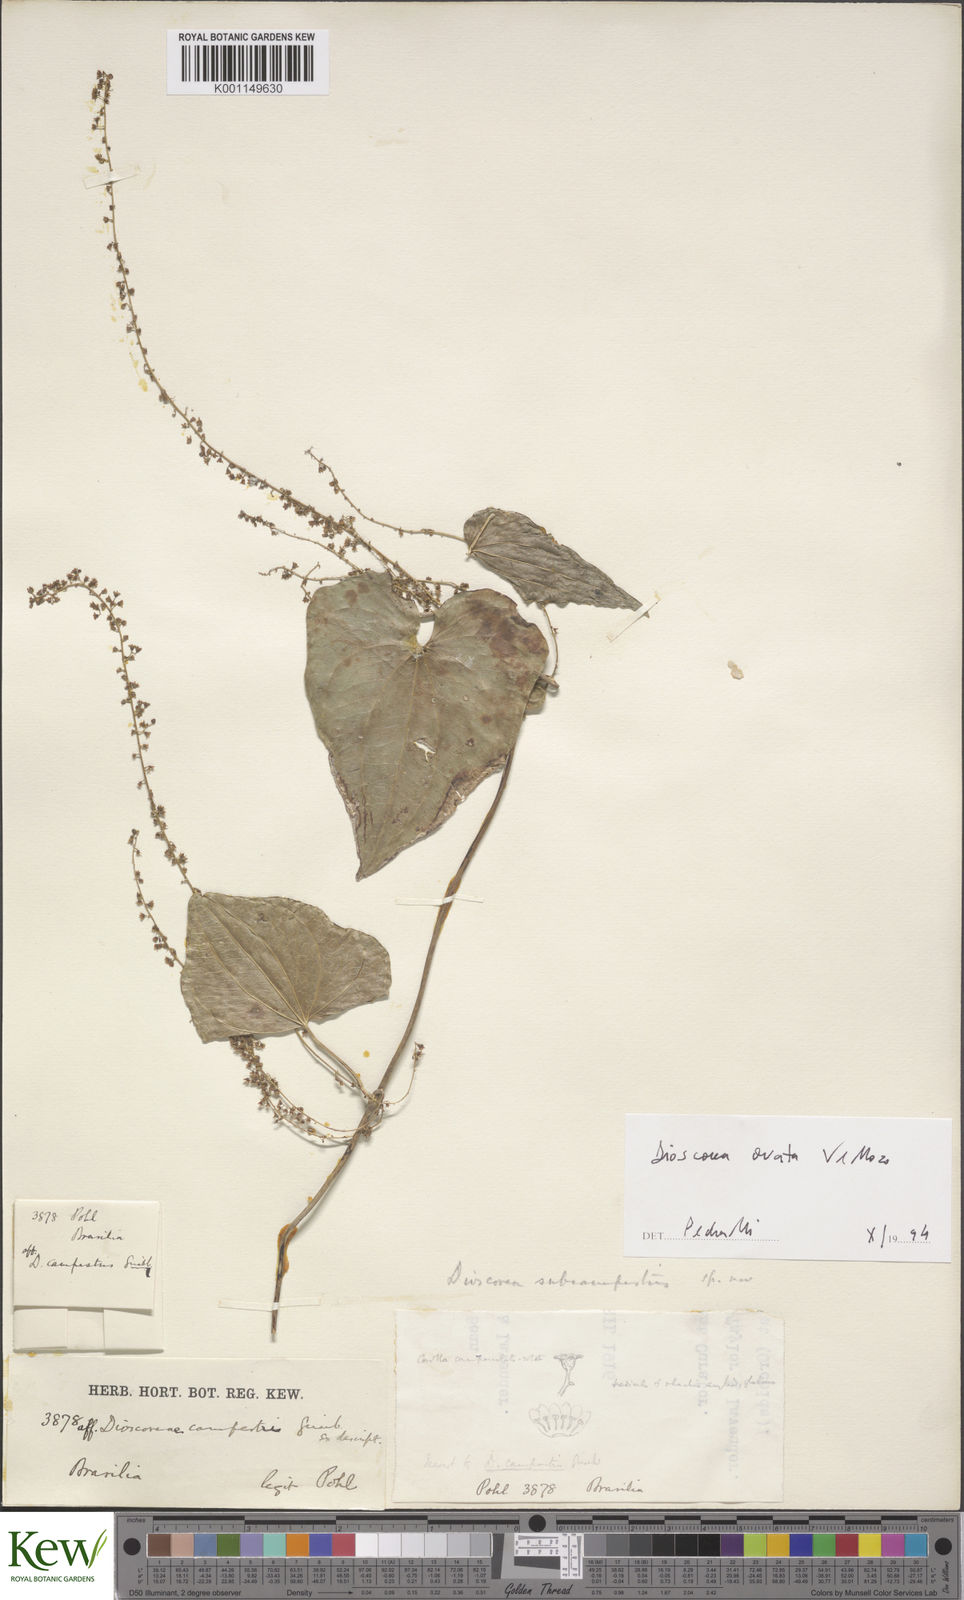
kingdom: Plantae
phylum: Tracheophyta
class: Liliopsida
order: Dioscoreales
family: Dioscoreaceae
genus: Dioscorea
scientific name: Dioscorea ovata
